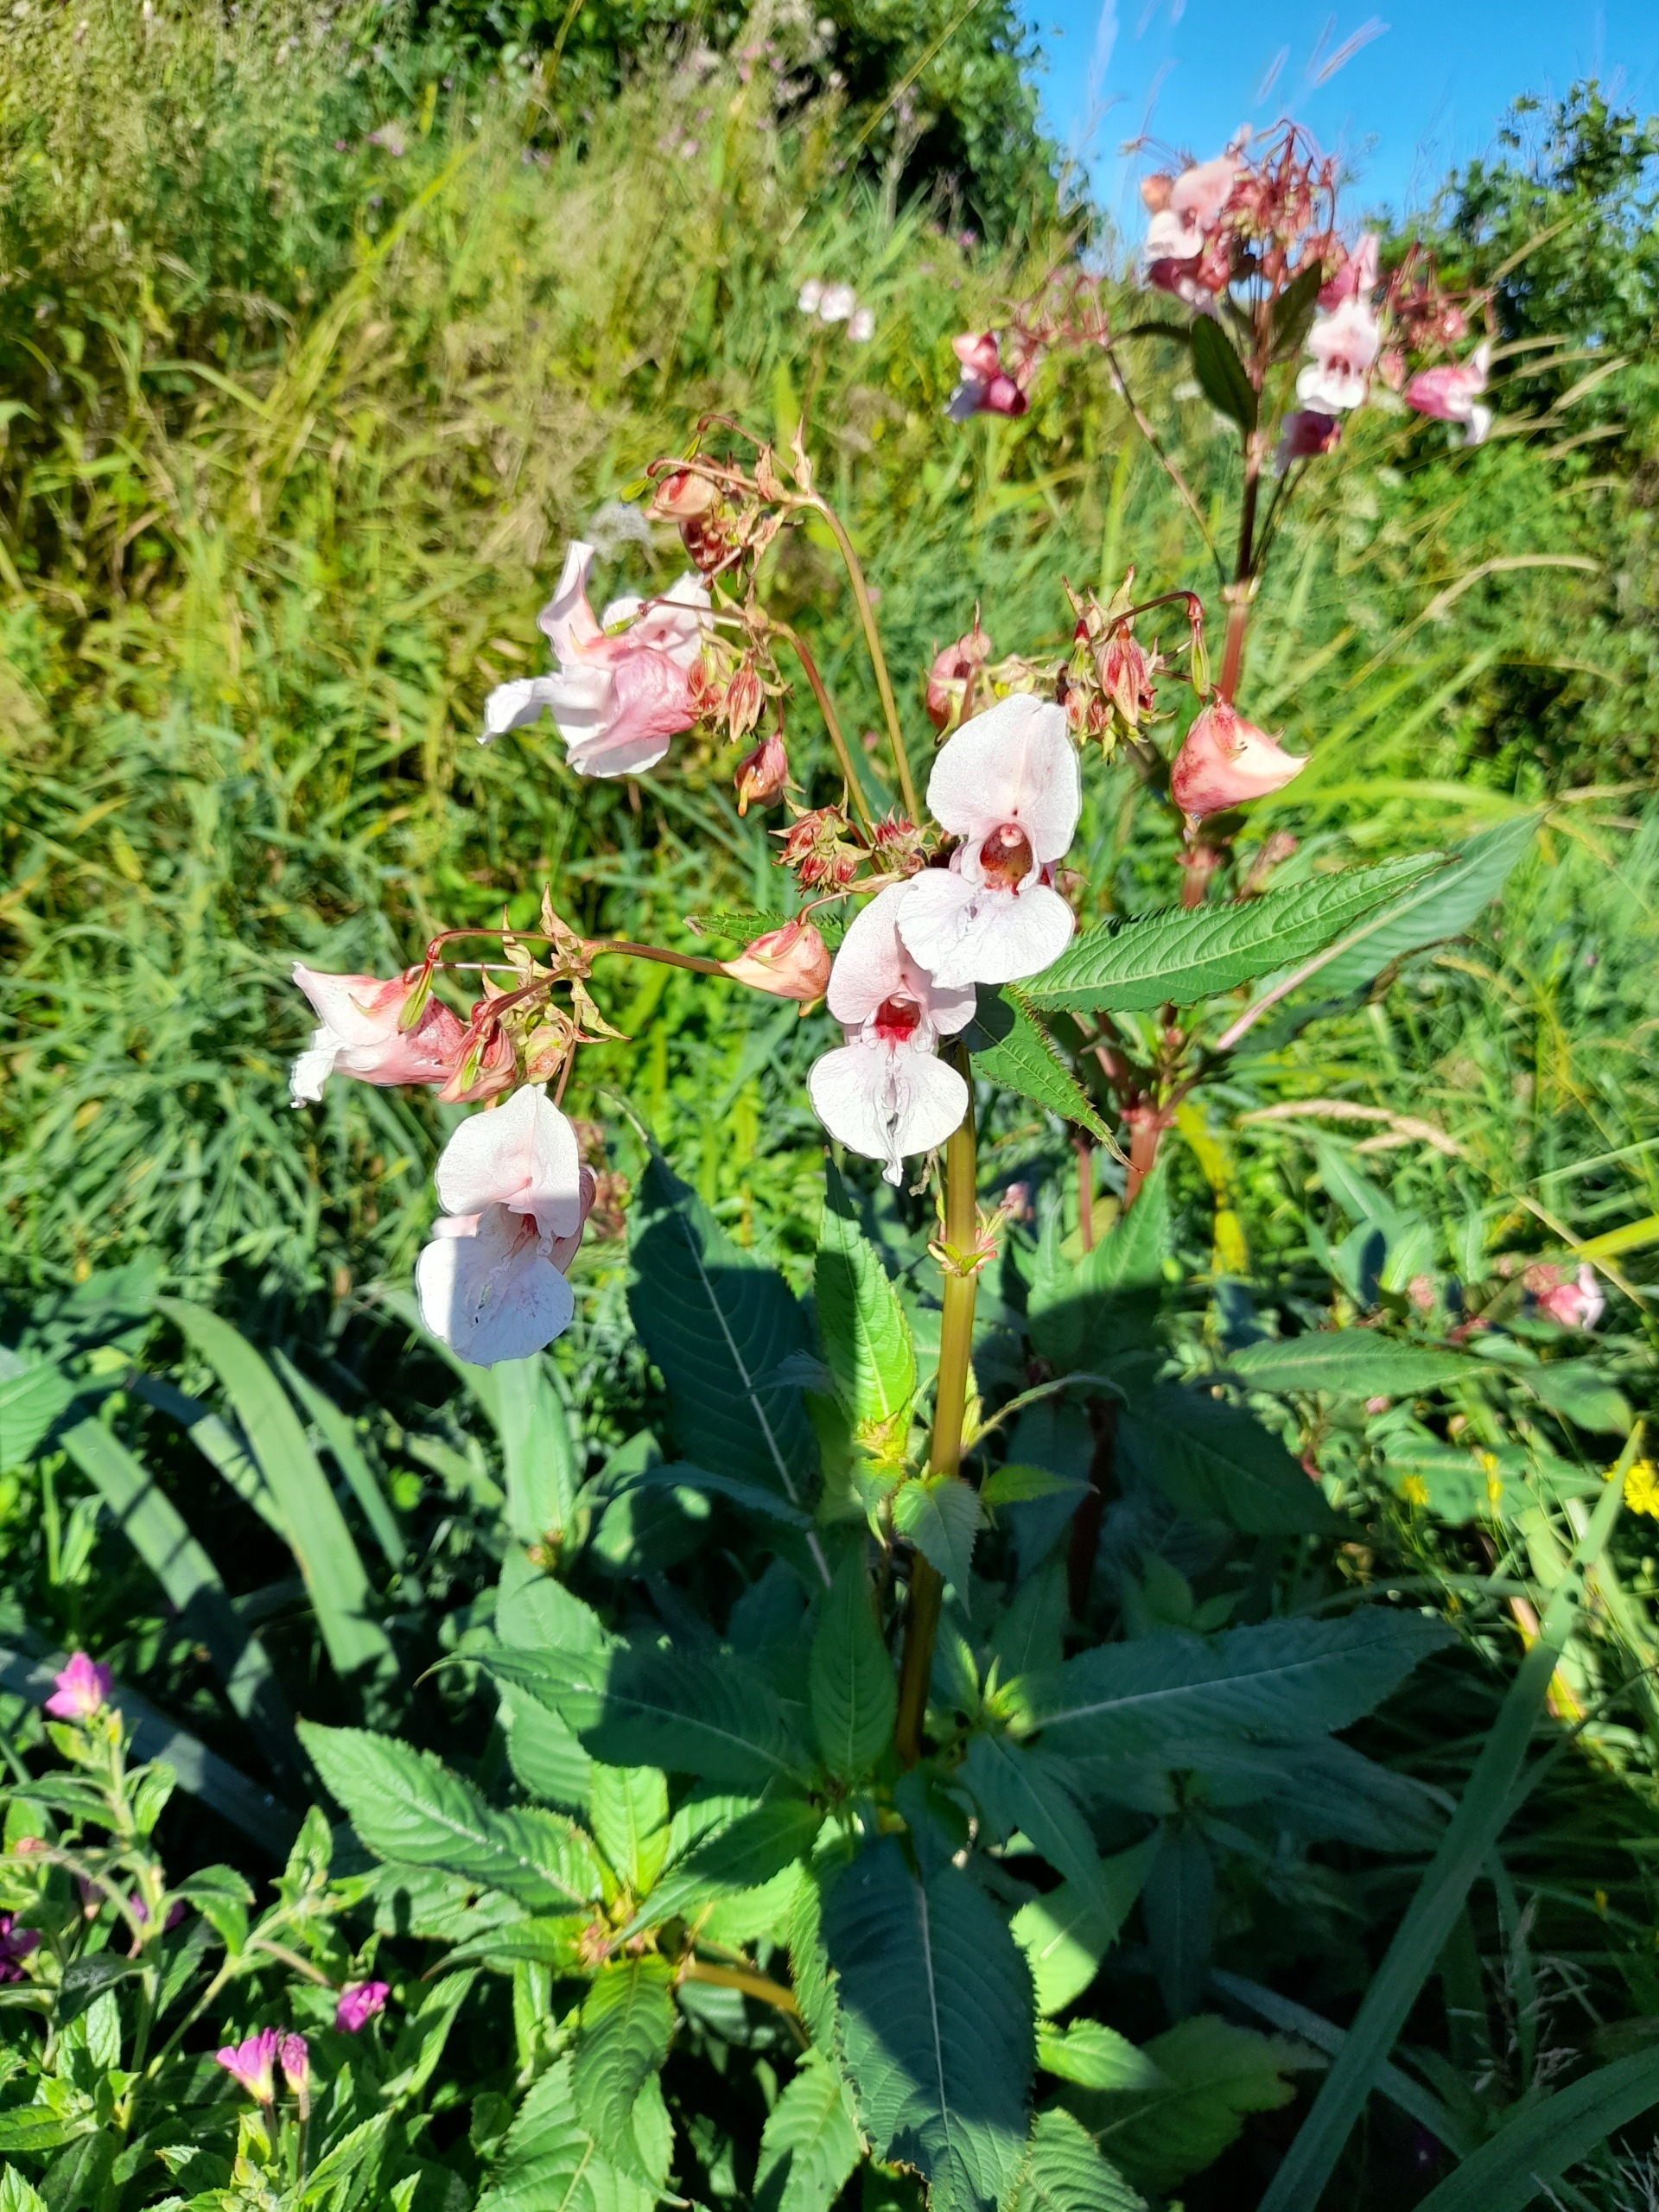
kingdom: Plantae
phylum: Tracheophyta
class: Magnoliopsida
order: Ericales
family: Balsaminaceae
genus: Impatiens
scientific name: Impatiens glandulifera
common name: Kæmpe-balsamin
